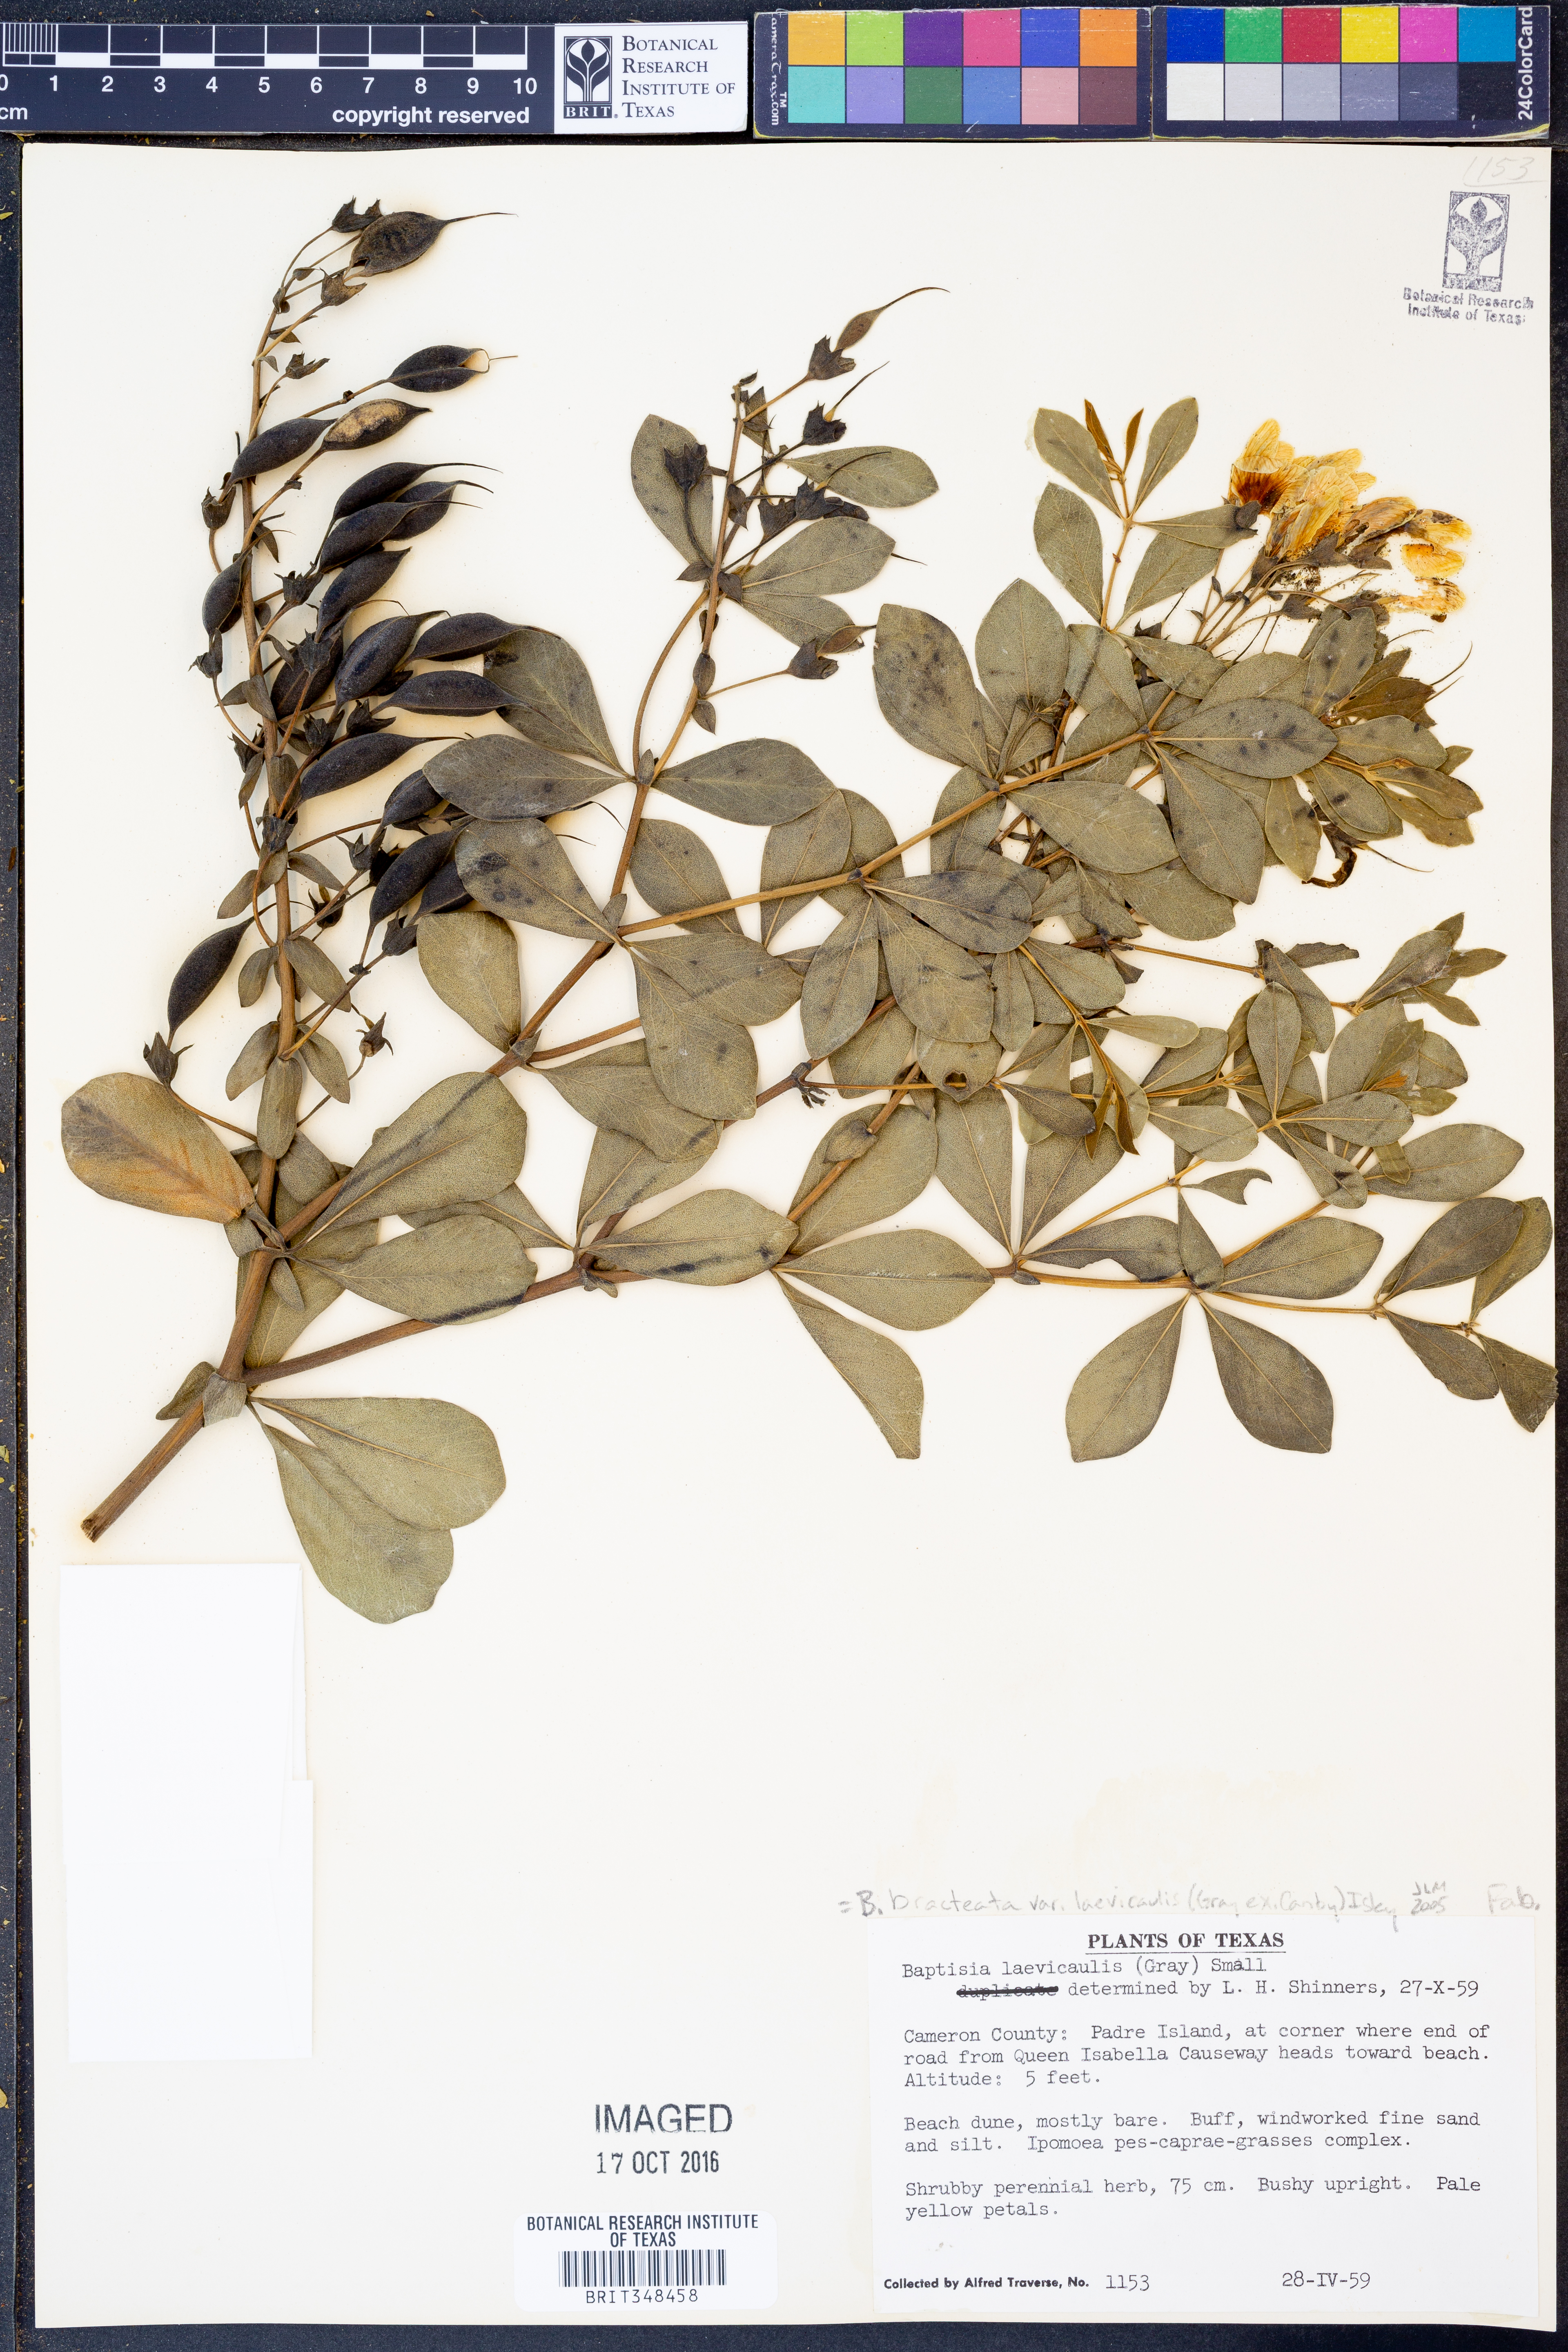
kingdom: Plantae
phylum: Tracheophyta
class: Magnoliopsida
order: Fabales
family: Fabaceae
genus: Baptisia
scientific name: Baptisia bracteata
